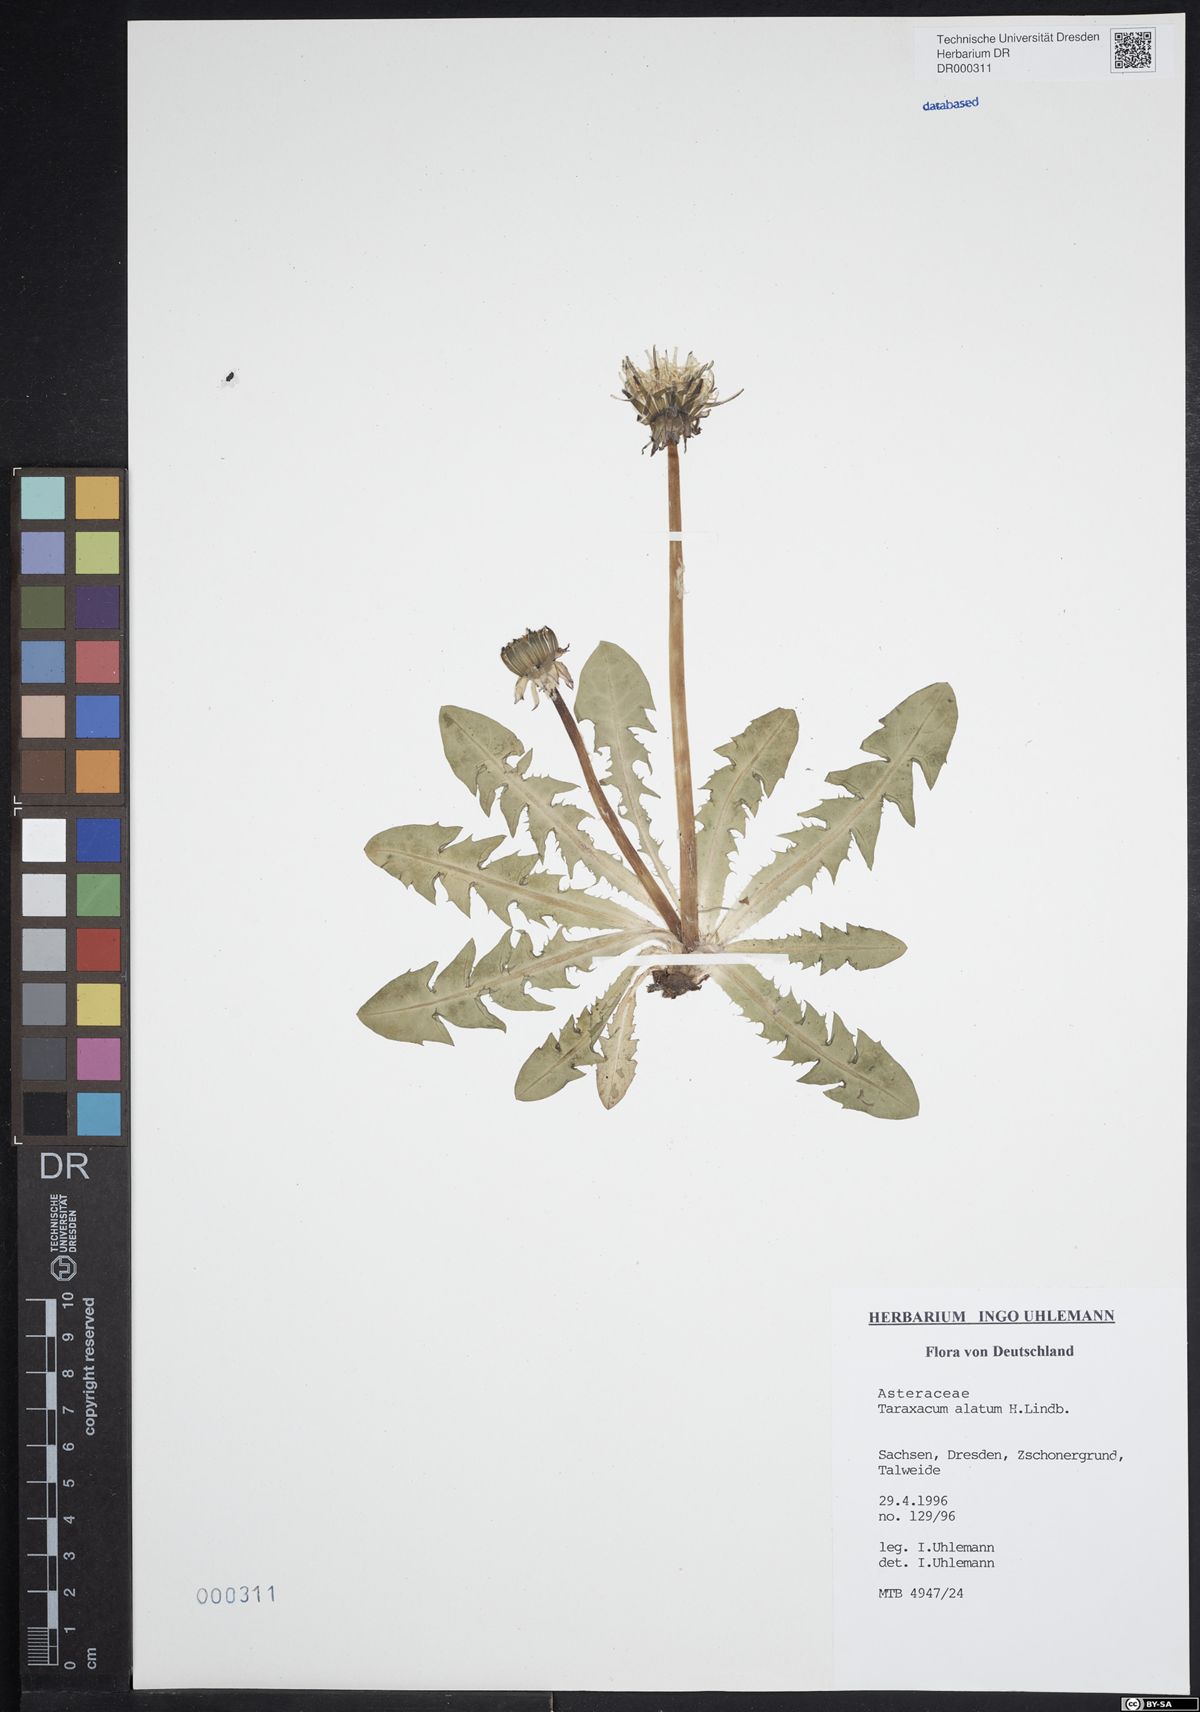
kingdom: Plantae
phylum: Tracheophyta
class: Magnoliopsida
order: Asterales
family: Asteraceae
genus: Taraxacum
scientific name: Taraxacum alatum
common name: Green dandelion
